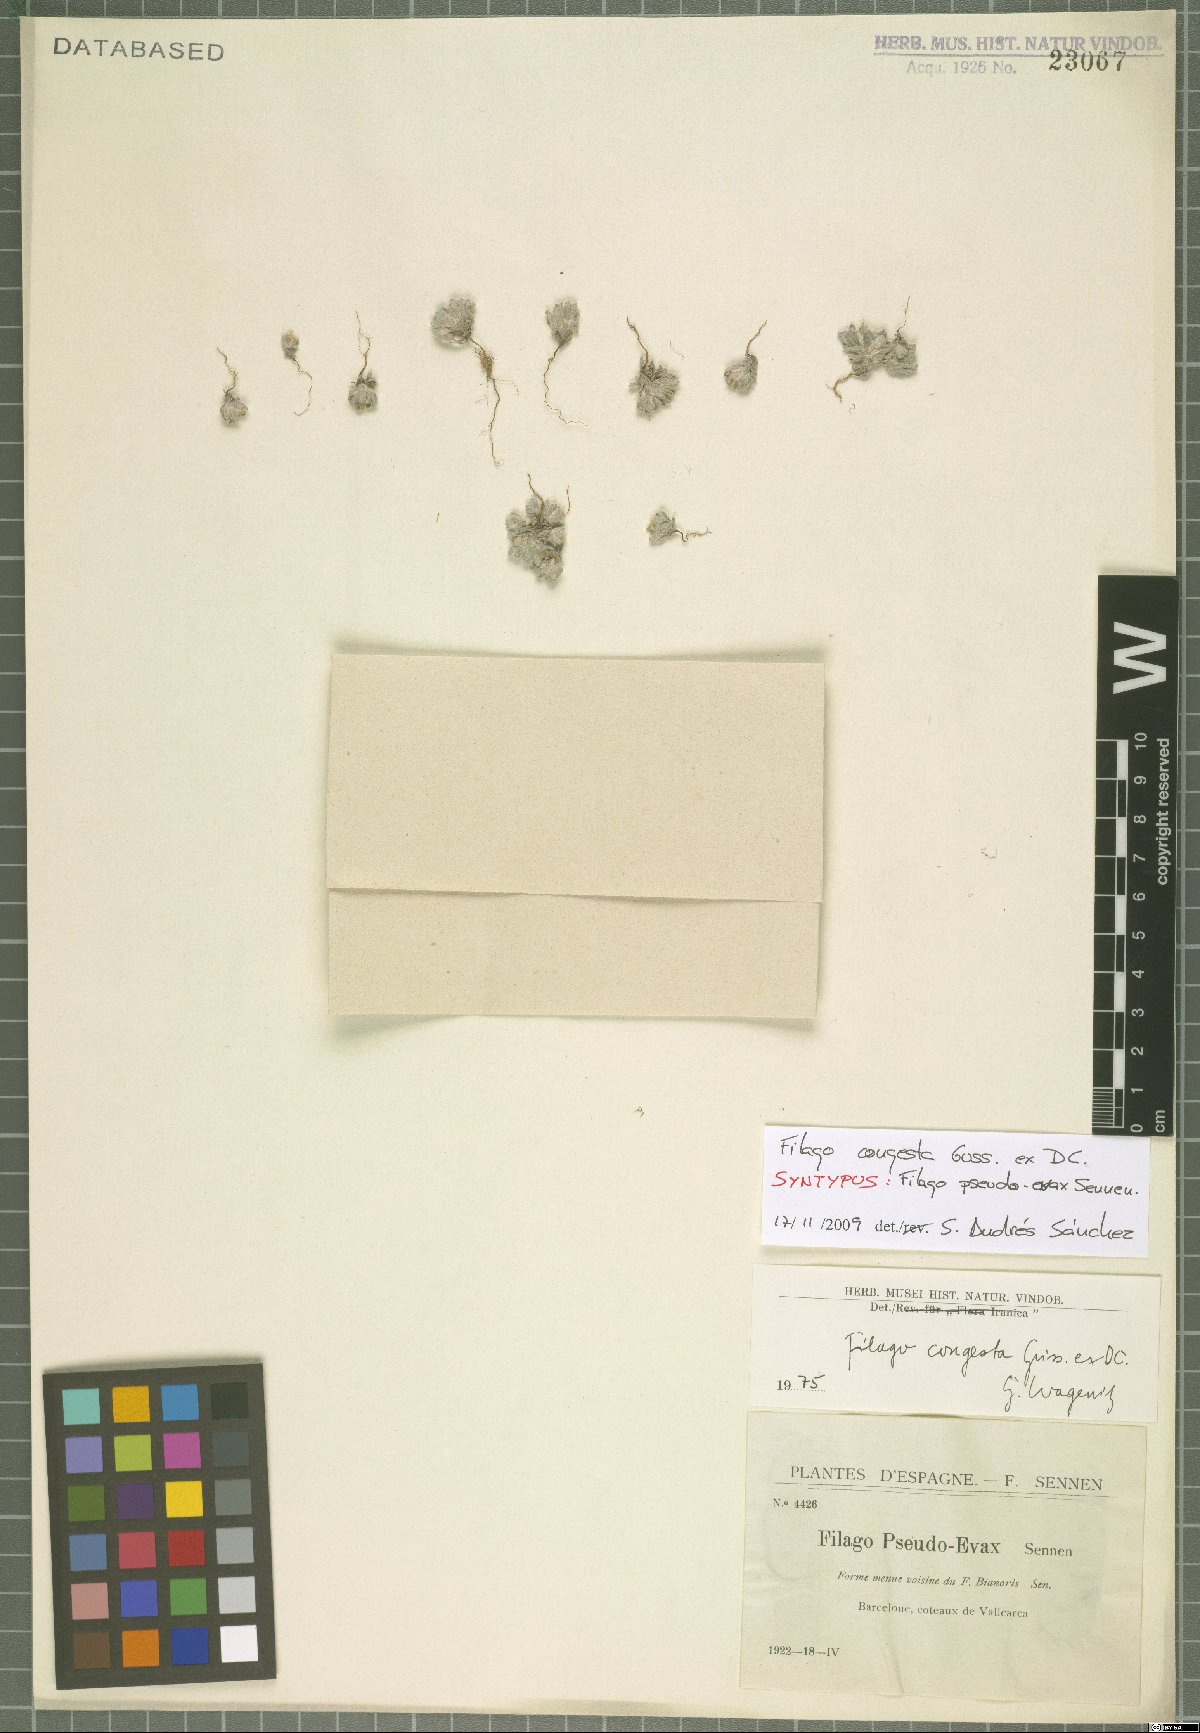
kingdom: Plantae
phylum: Tracheophyta
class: Magnoliopsida
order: Asterales
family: Asteraceae
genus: Filago
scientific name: Filago congesta
